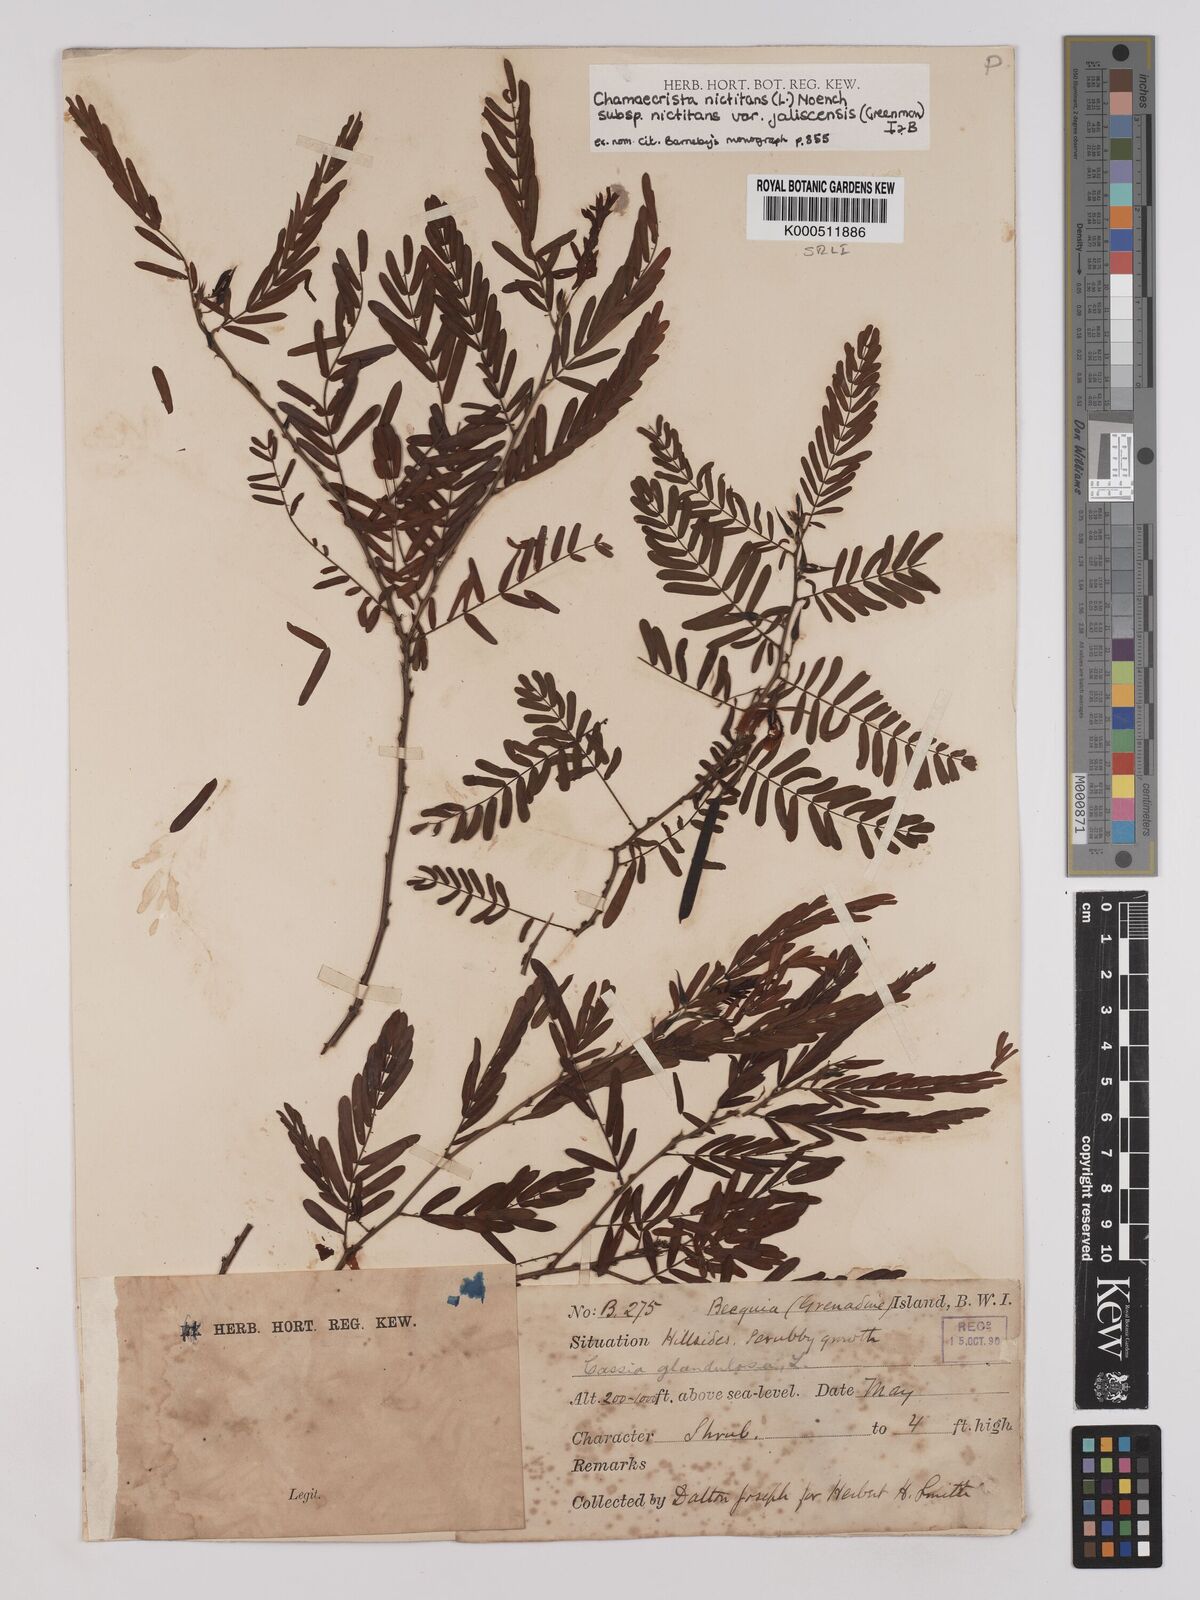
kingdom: Plantae
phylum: Tracheophyta
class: Magnoliopsida
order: Fabales
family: Fabaceae
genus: Chamaecrista
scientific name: Chamaecrista
